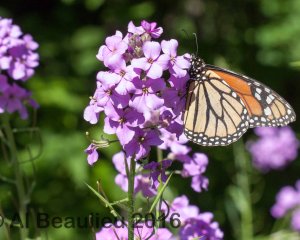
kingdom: Animalia
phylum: Arthropoda
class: Insecta
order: Lepidoptera
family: Nymphalidae
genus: Danaus
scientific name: Danaus plexippus
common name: Monarch
